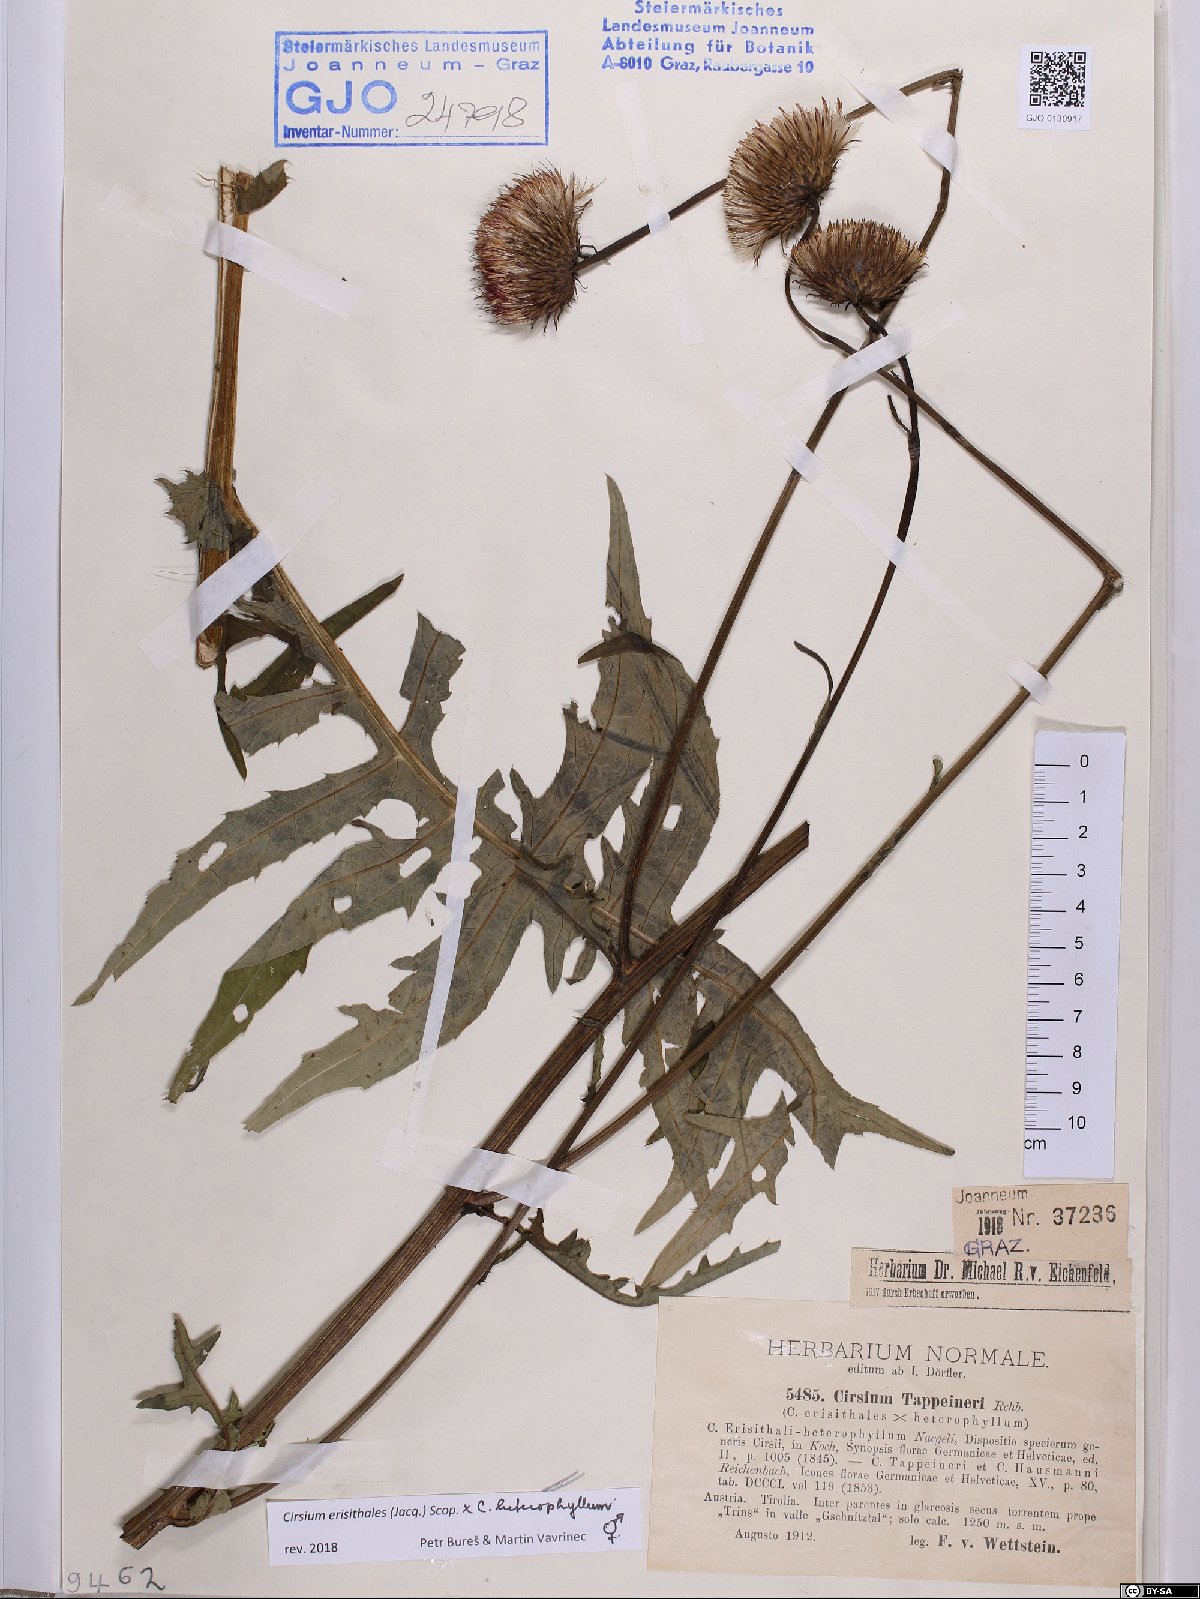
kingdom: Plantae
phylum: Tracheophyta
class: Magnoliopsida
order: Asterales
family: Asteraceae
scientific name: Asteraceae
